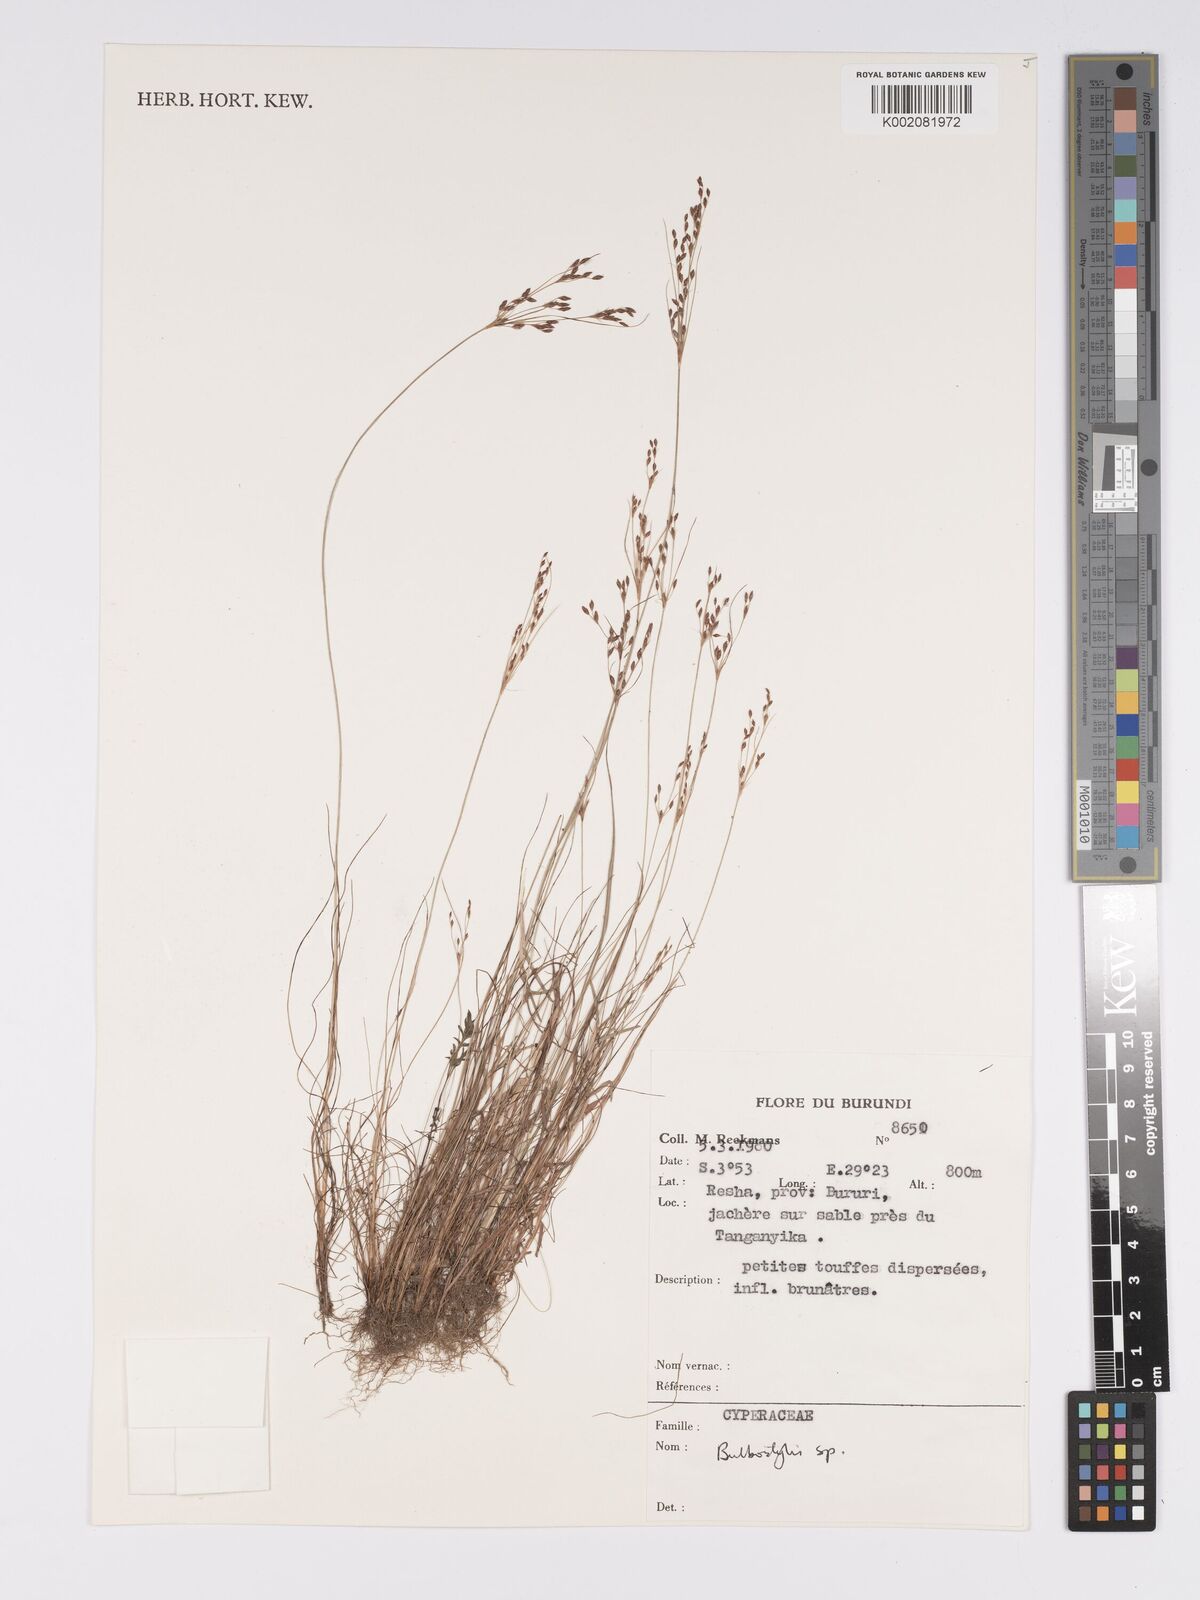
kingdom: Plantae
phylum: Tracheophyta
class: Magnoliopsida
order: Asterales
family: Asteraceae
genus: Bulbostylis
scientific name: Bulbostylis
